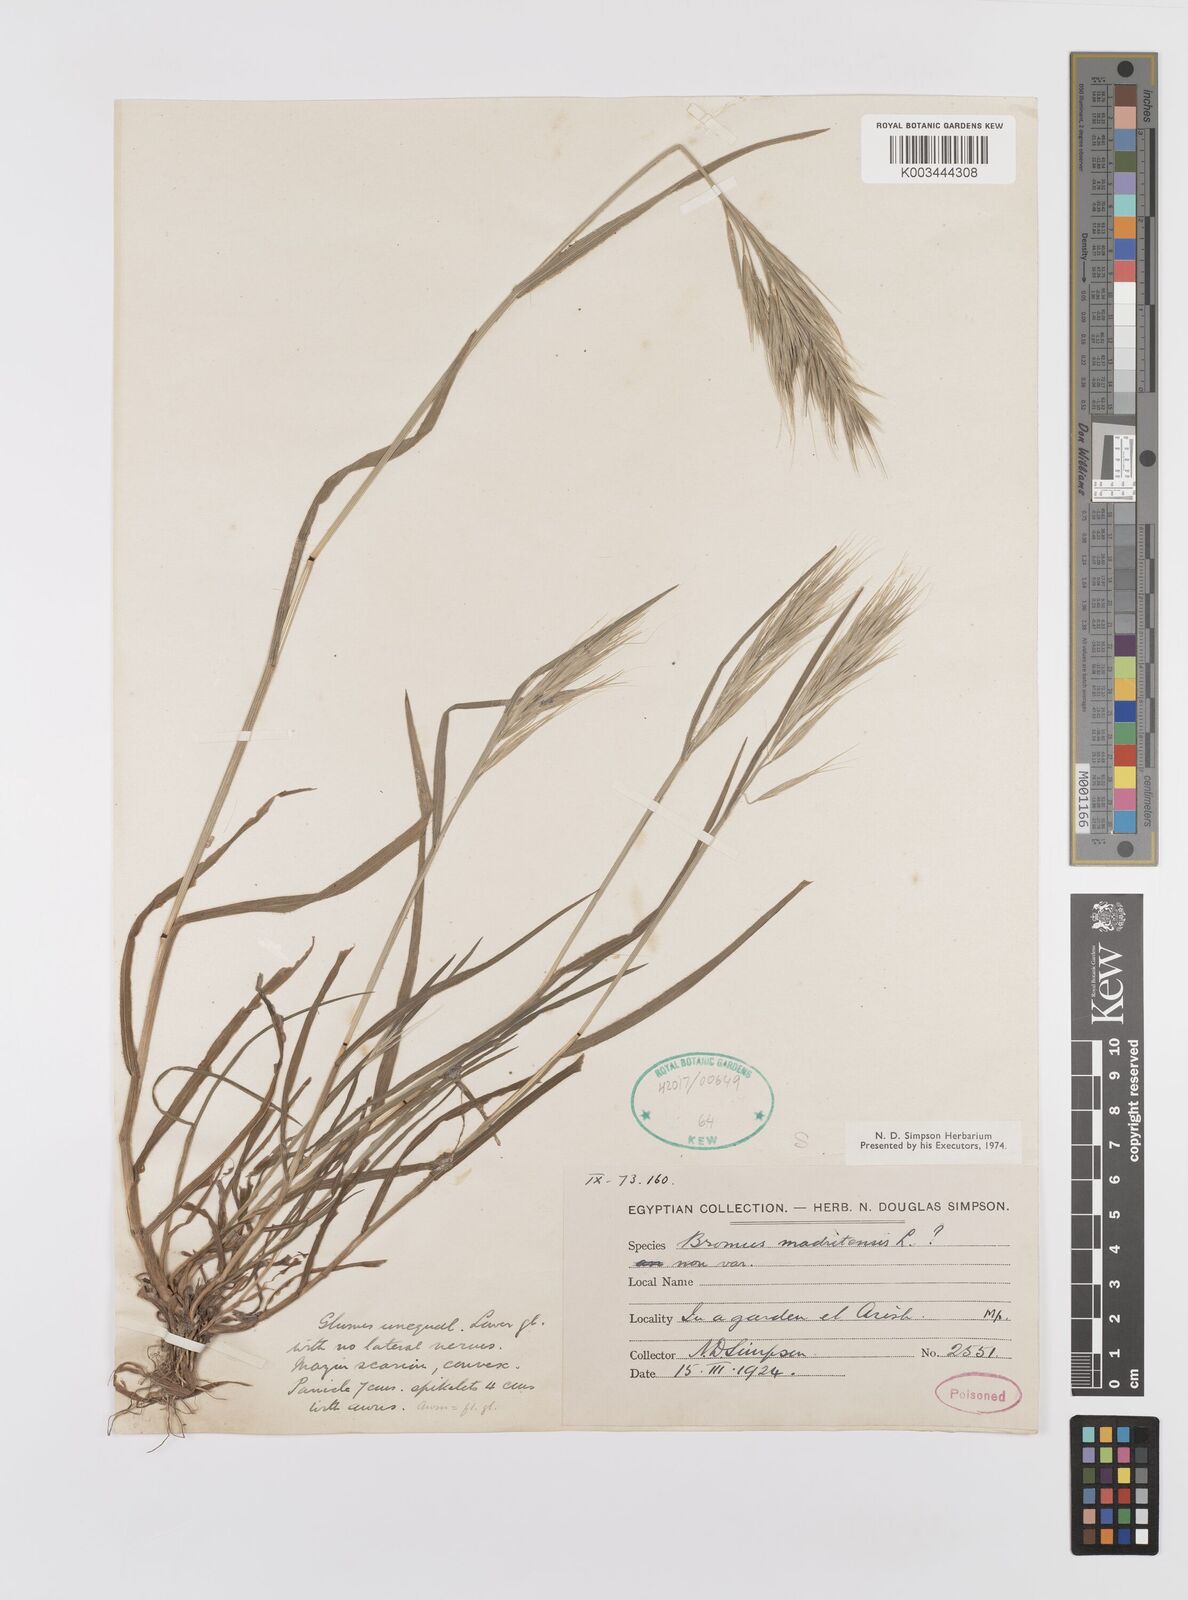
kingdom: Plantae
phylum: Tracheophyta
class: Liliopsida
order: Poales
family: Poaceae
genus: Bromus
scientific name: Bromus madritensis
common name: Compact brome
